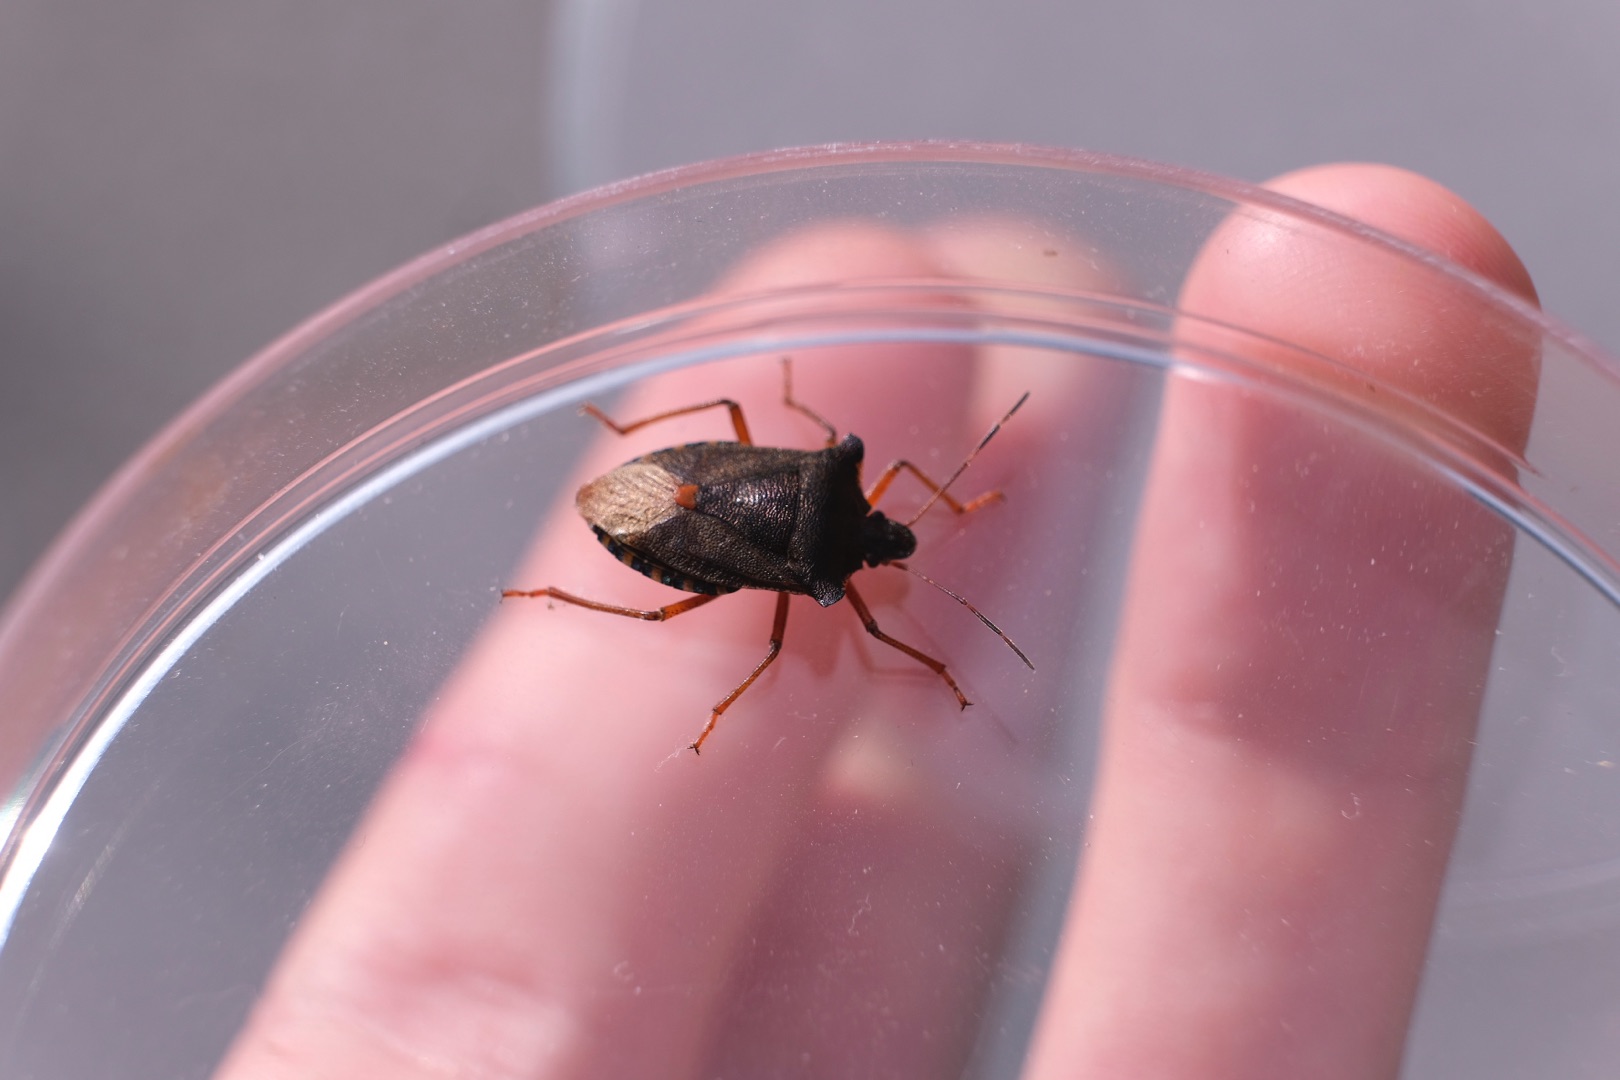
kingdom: Animalia
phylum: Arthropoda
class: Insecta
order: Hemiptera
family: Pentatomidae
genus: Pentatoma
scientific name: Pentatoma rufipes
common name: Rødbenet bredtæge
